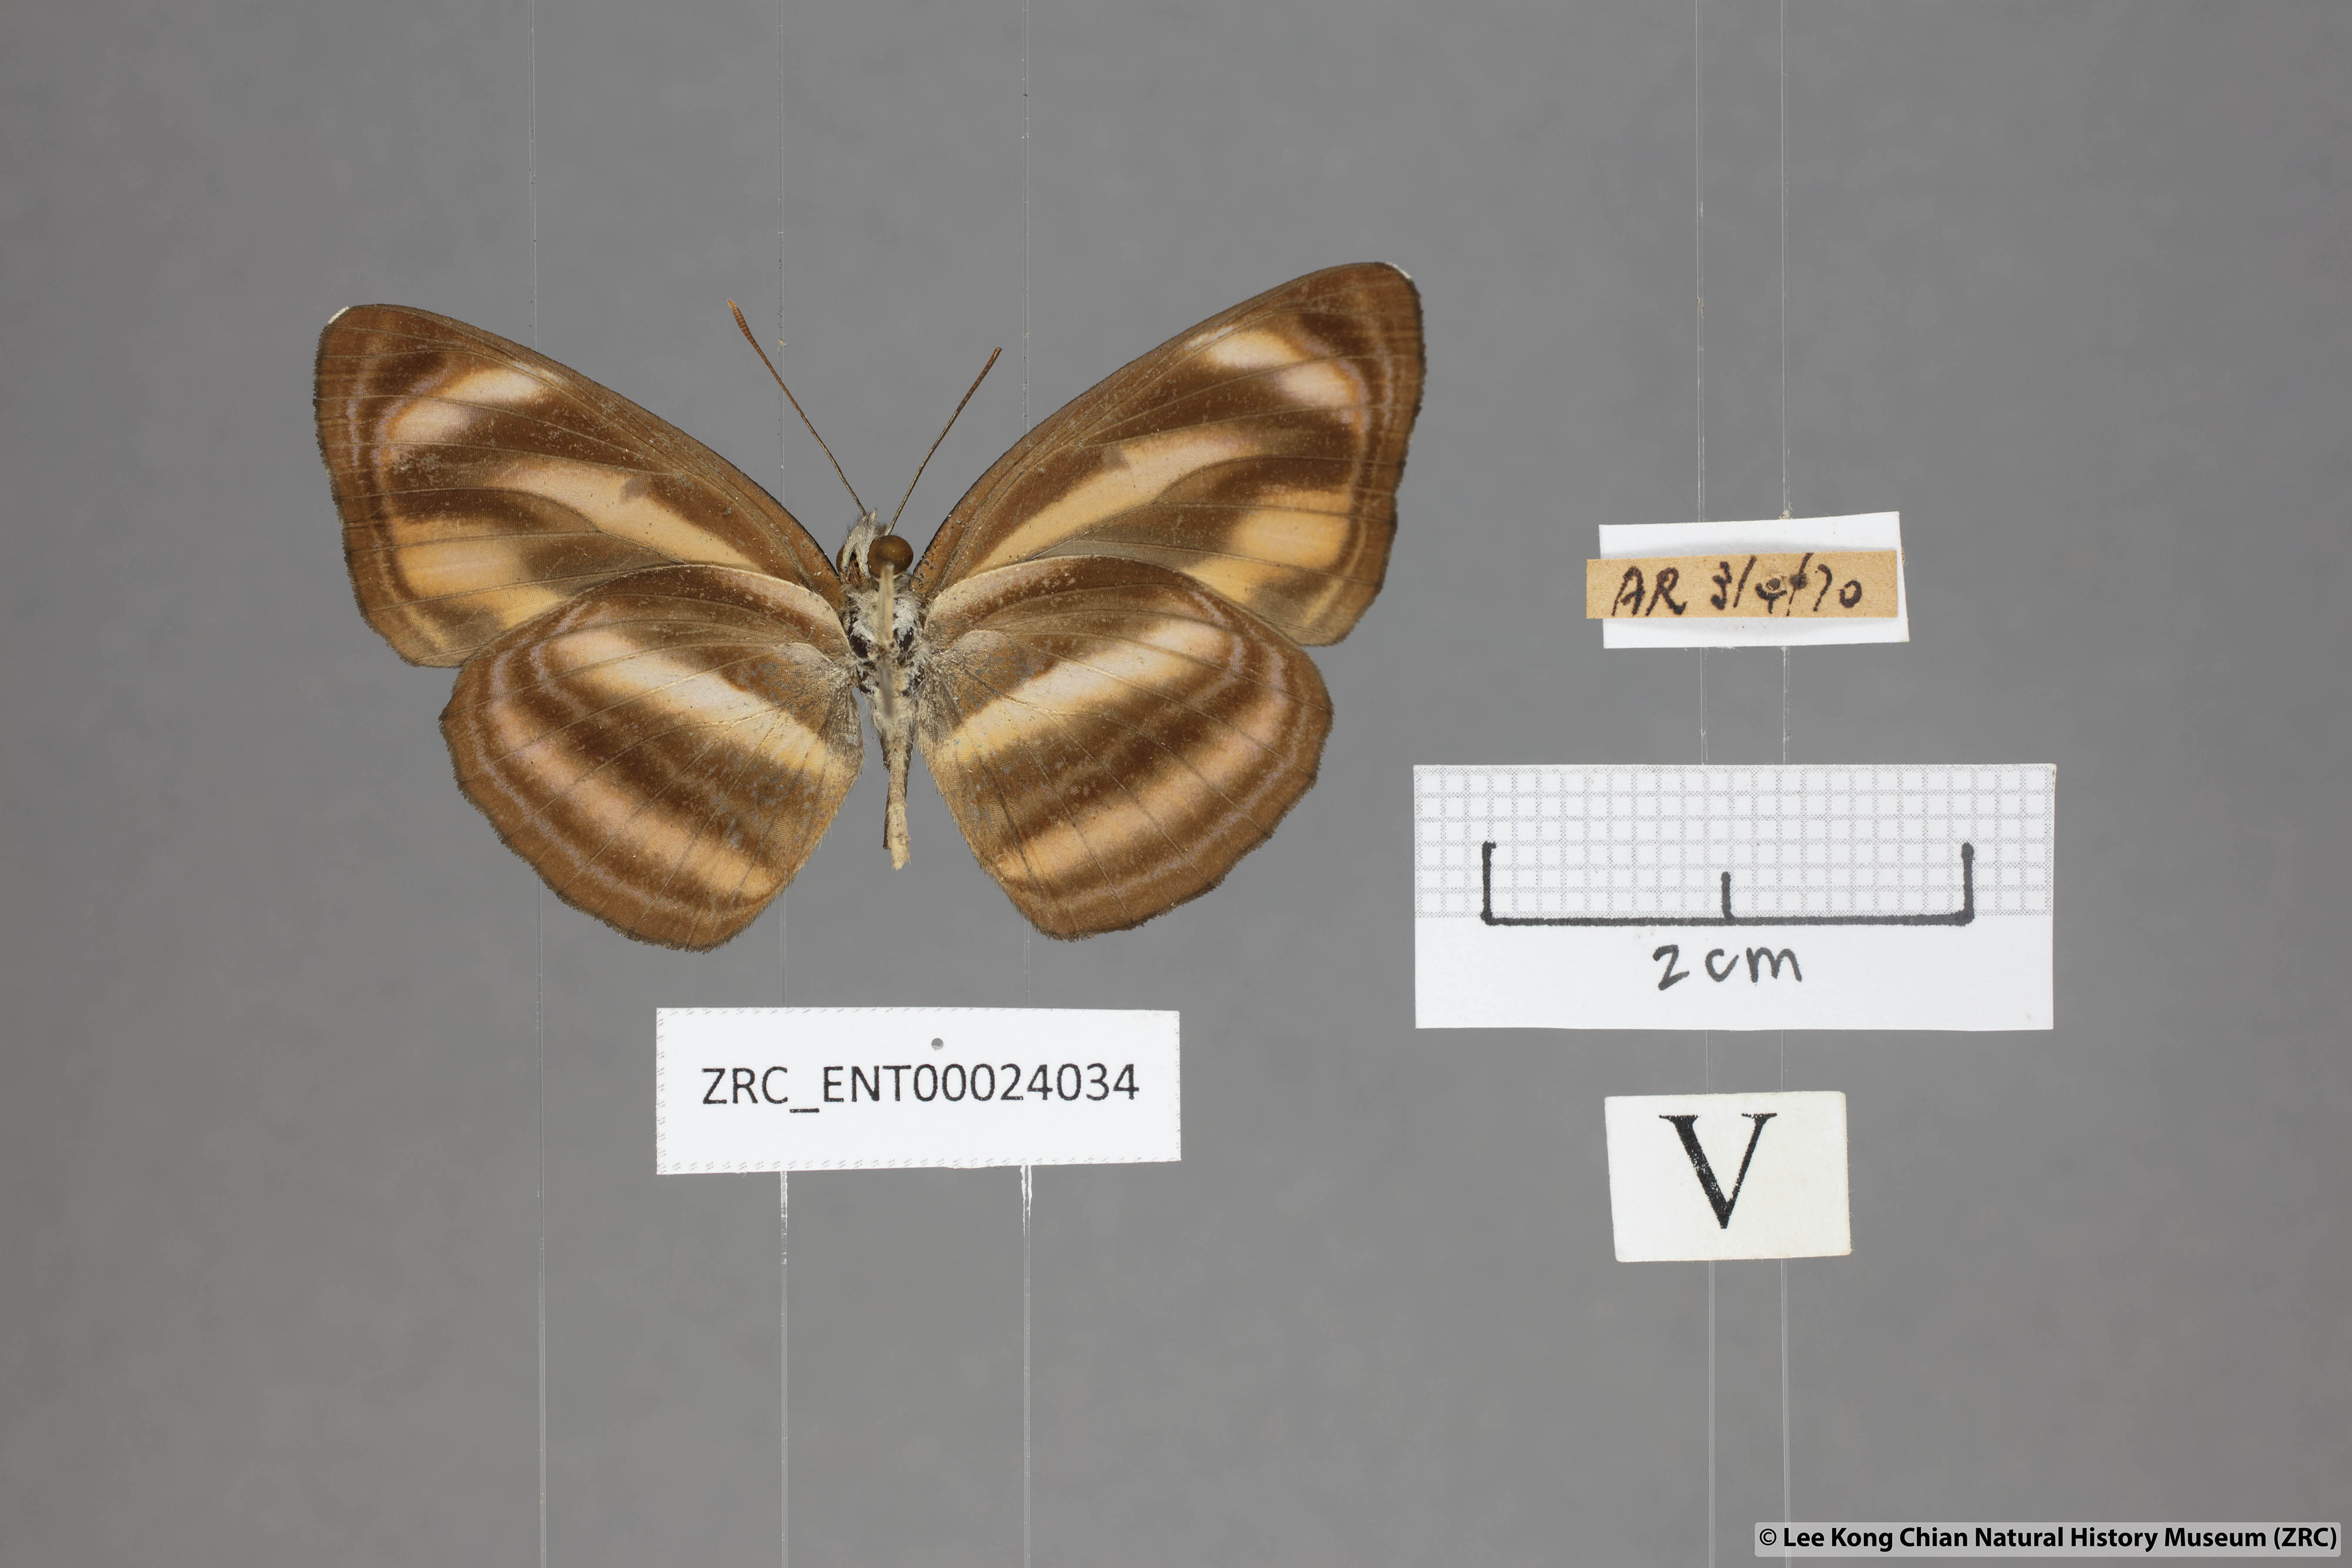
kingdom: Animalia
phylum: Arthropoda
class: Insecta
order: Lepidoptera
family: Nymphalidae
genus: Neptis
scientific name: Neptis miah
